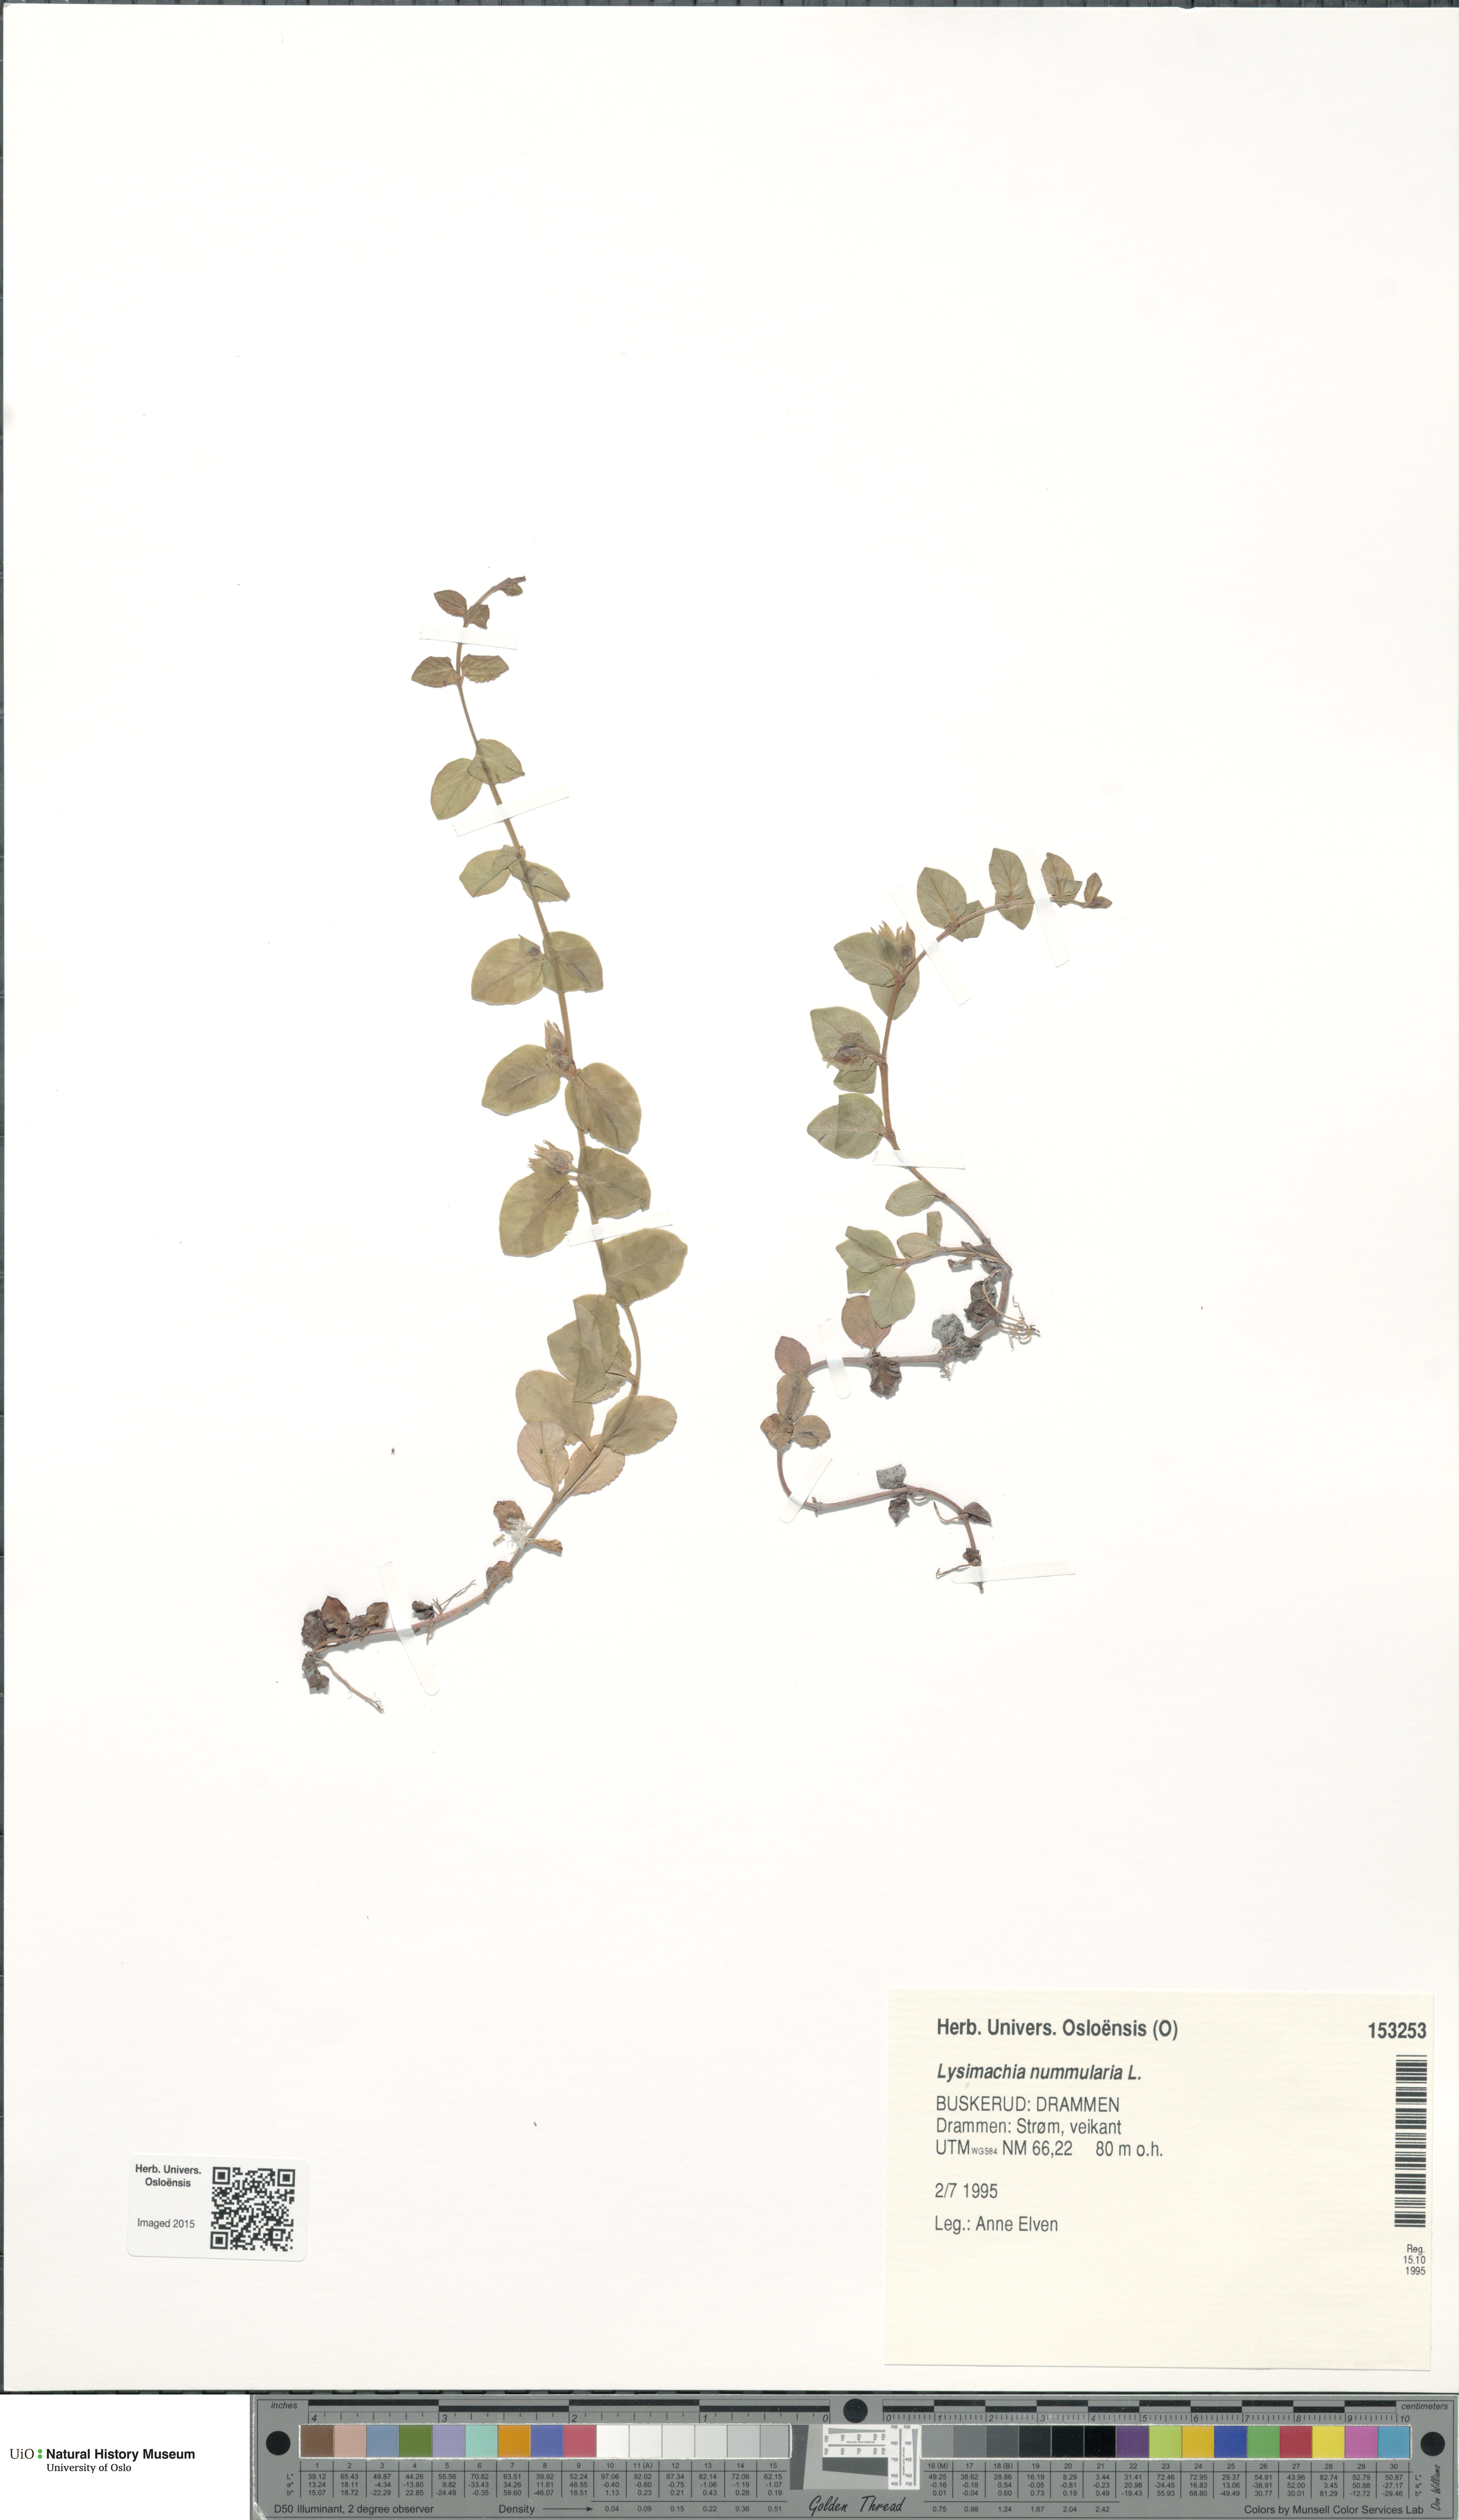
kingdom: Plantae
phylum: Tracheophyta
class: Magnoliopsida
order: Ericales
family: Primulaceae
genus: Lysimachia
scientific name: Lysimachia nummularia
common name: Moneywort
